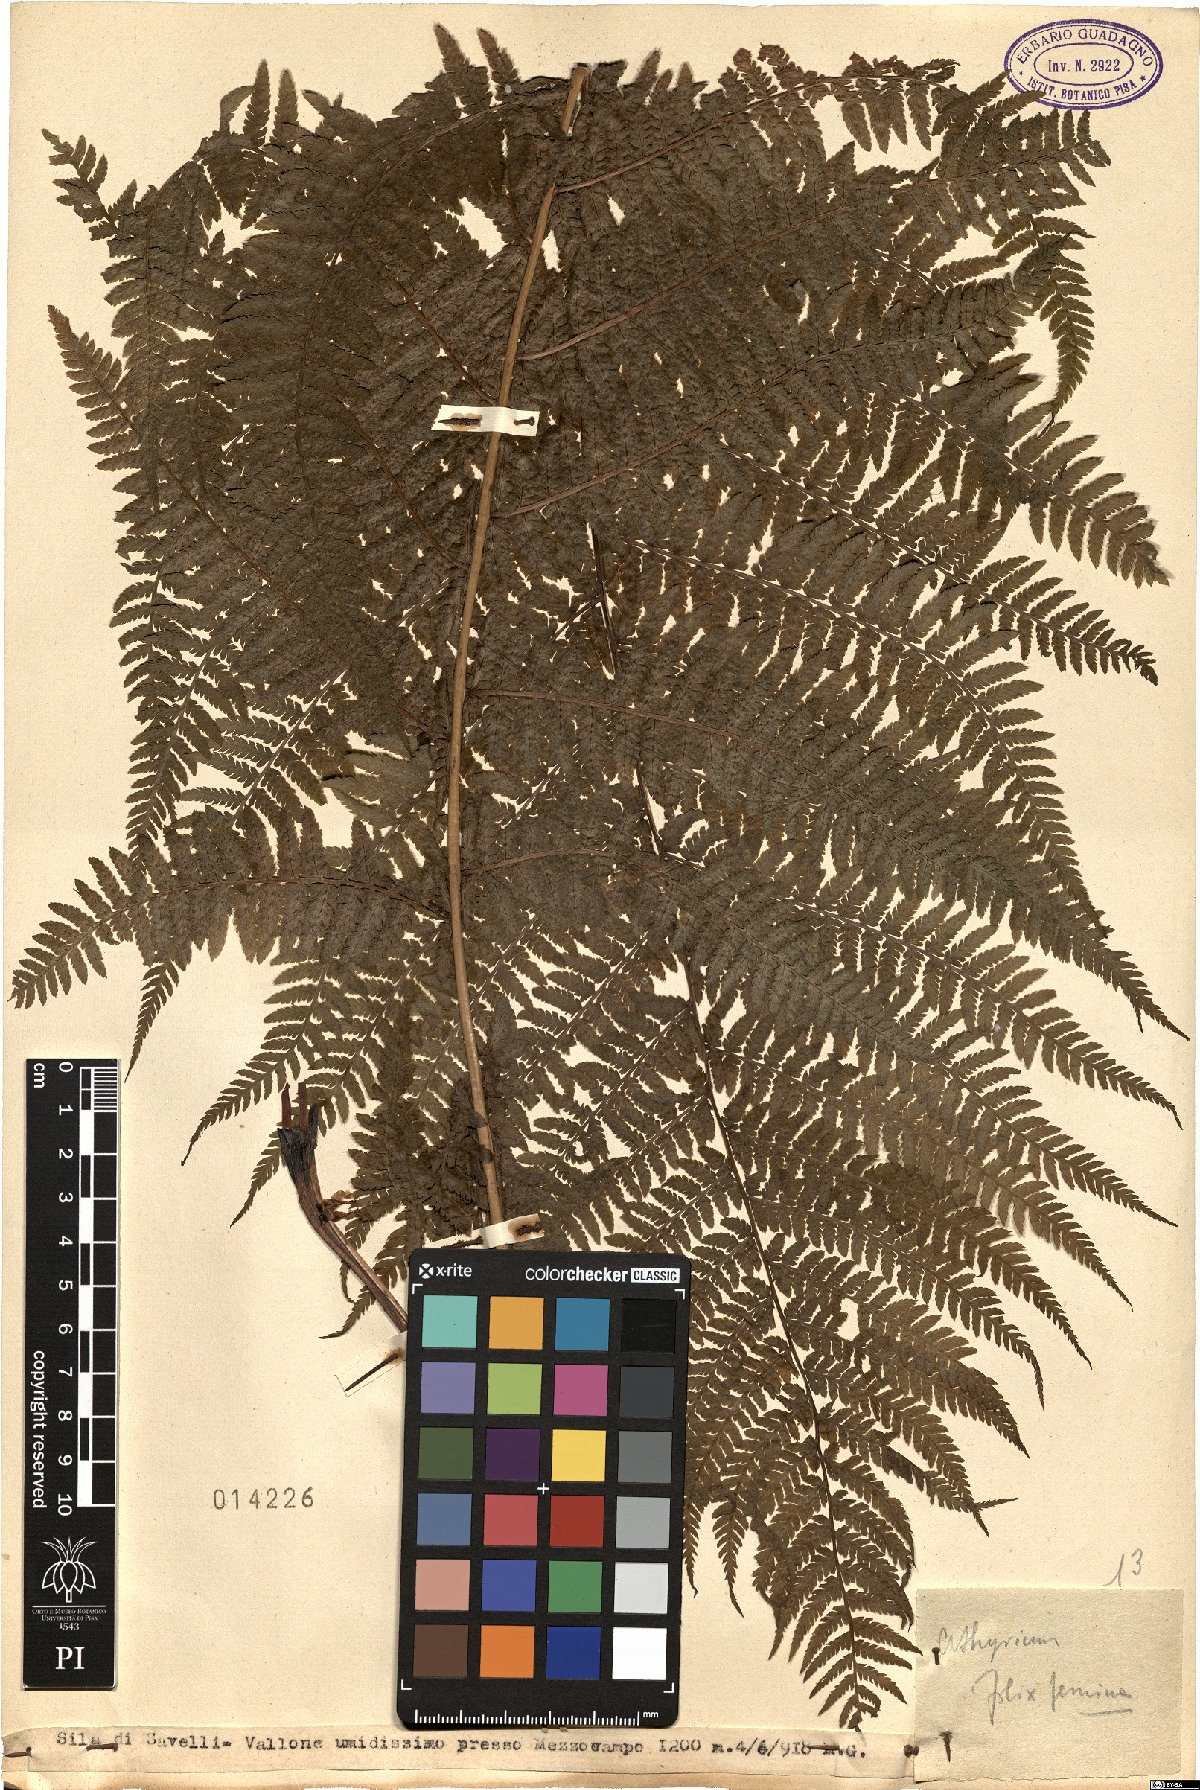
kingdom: Plantae
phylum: Tracheophyta
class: Polypodiopsida
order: Polypodiales
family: Athyriaceae
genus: Athyrium
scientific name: Athyrium filix-femina
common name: Lady fern
